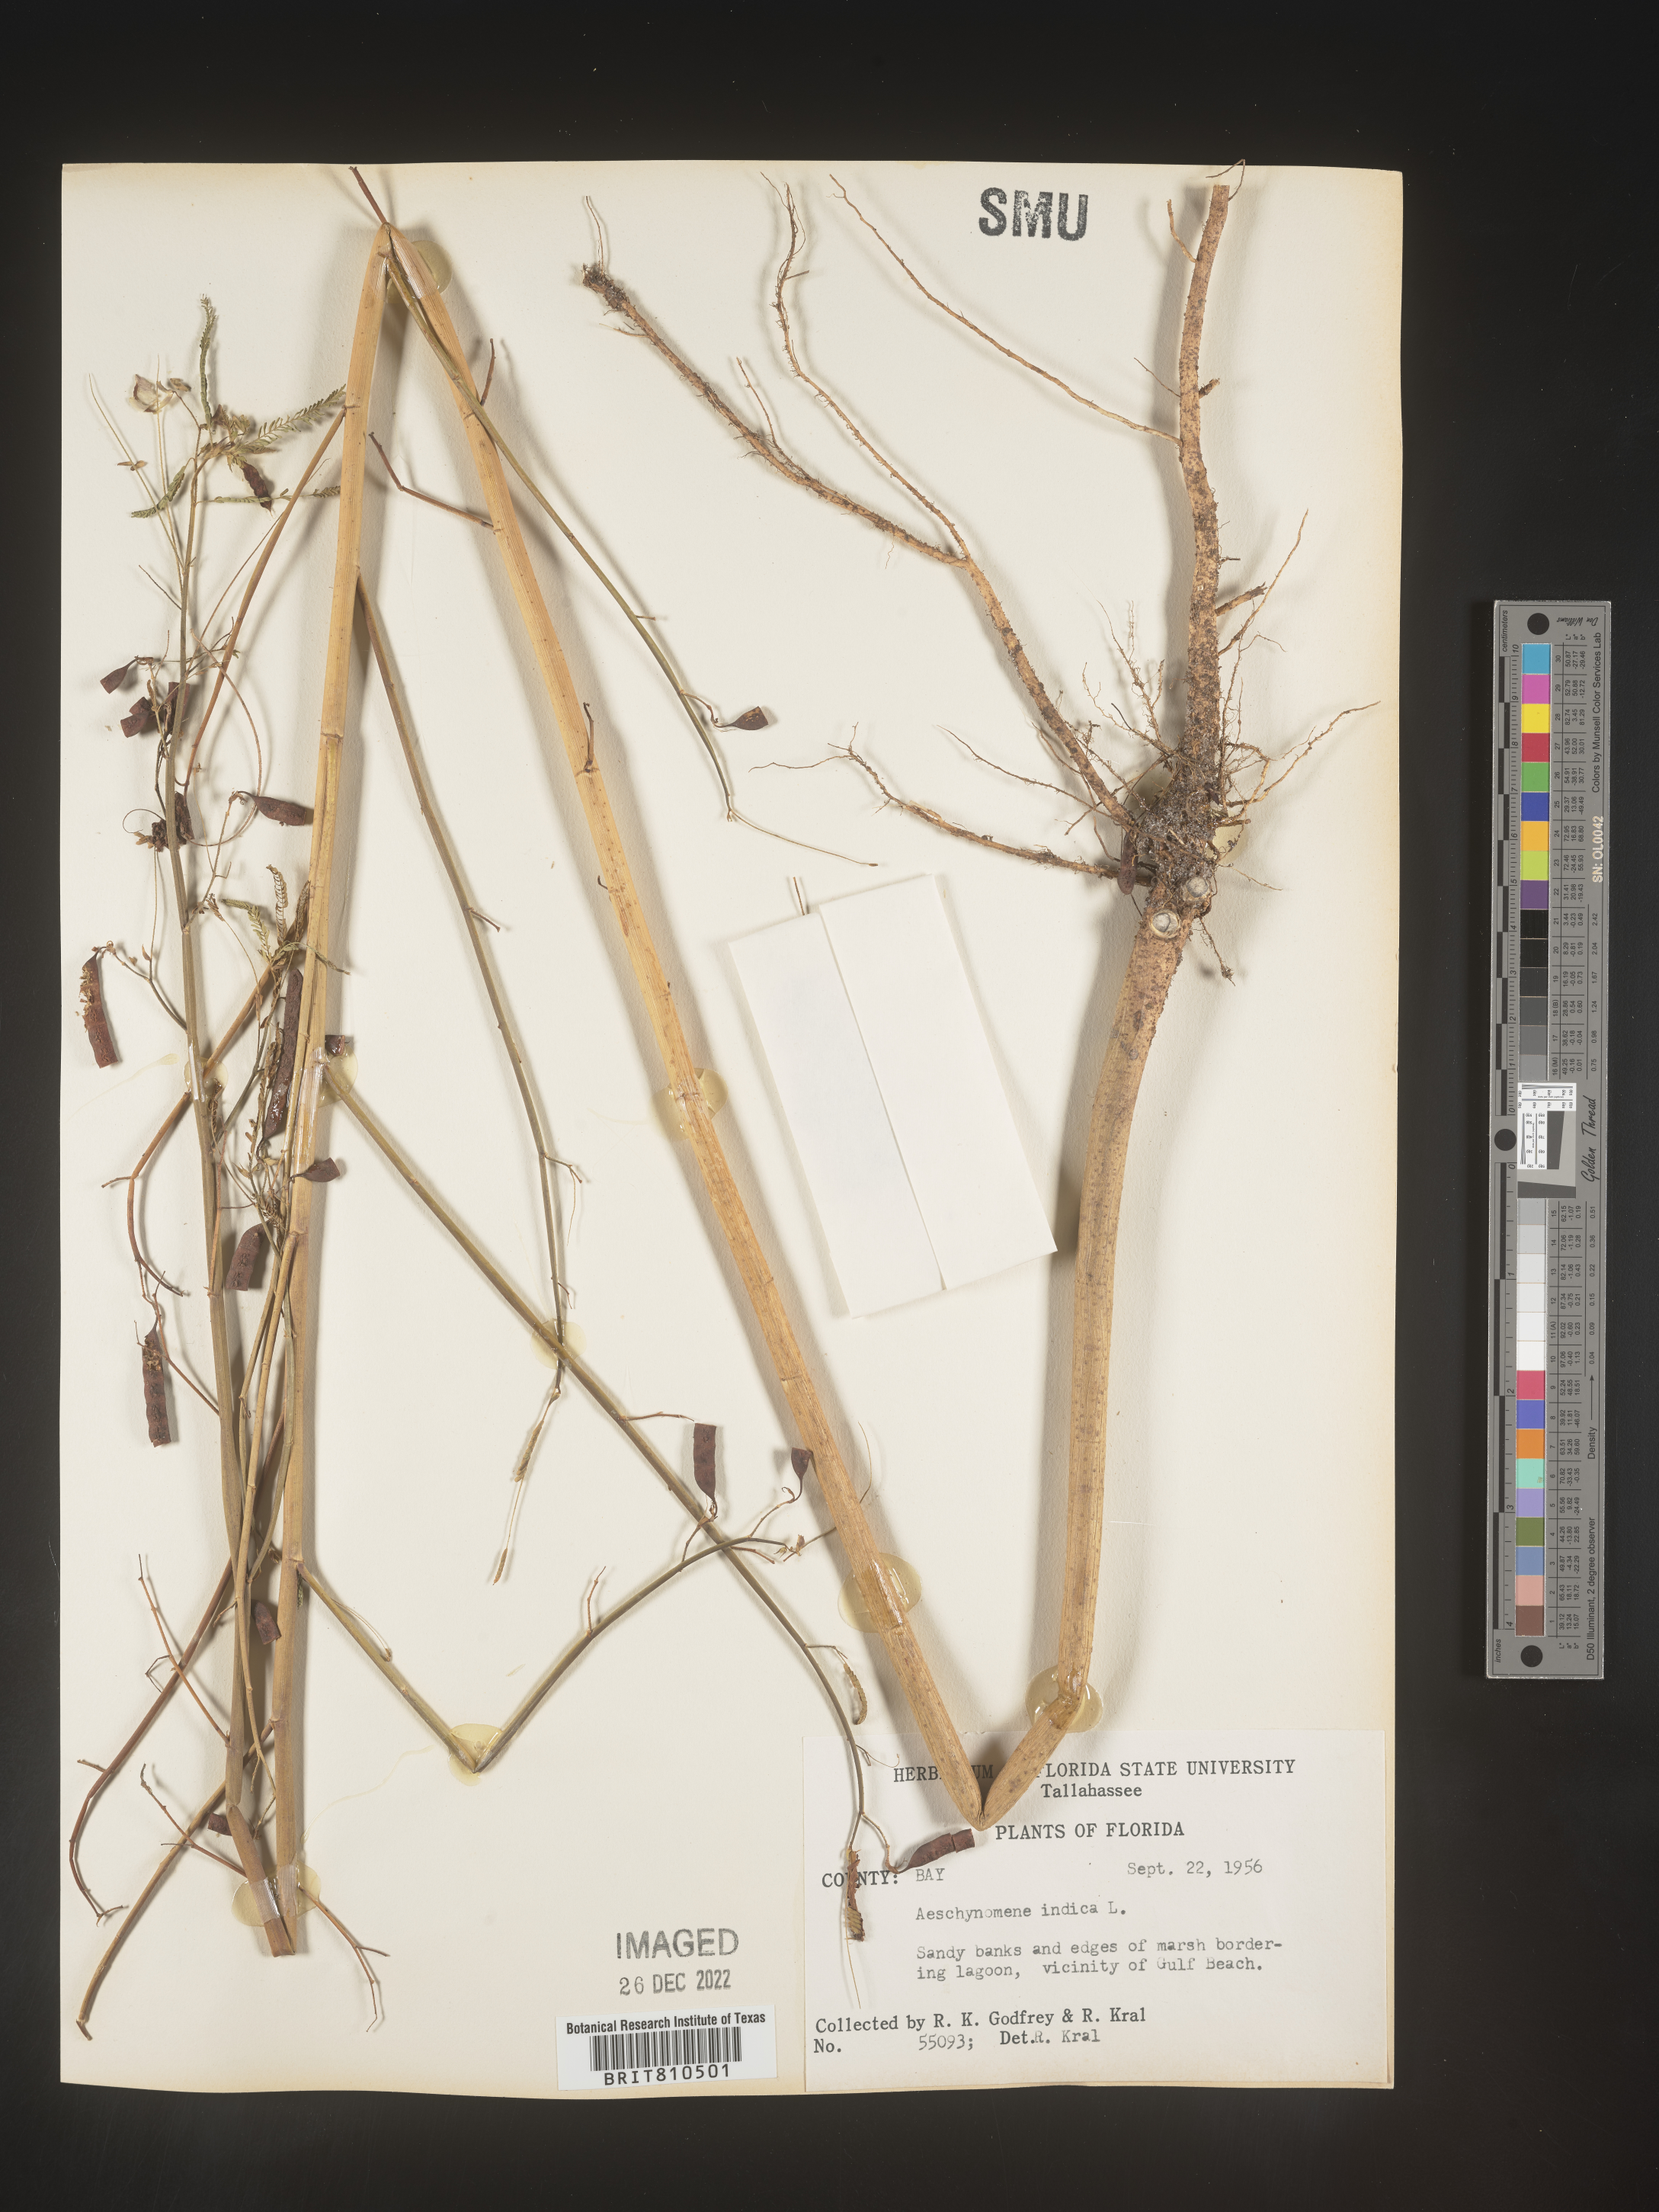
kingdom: Plantae
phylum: Tracheophyta
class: Magnoliopsida
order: Fabales
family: Fabaceae
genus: Aeschynomene
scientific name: Aeschynomene indica
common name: Indian jointvetch
